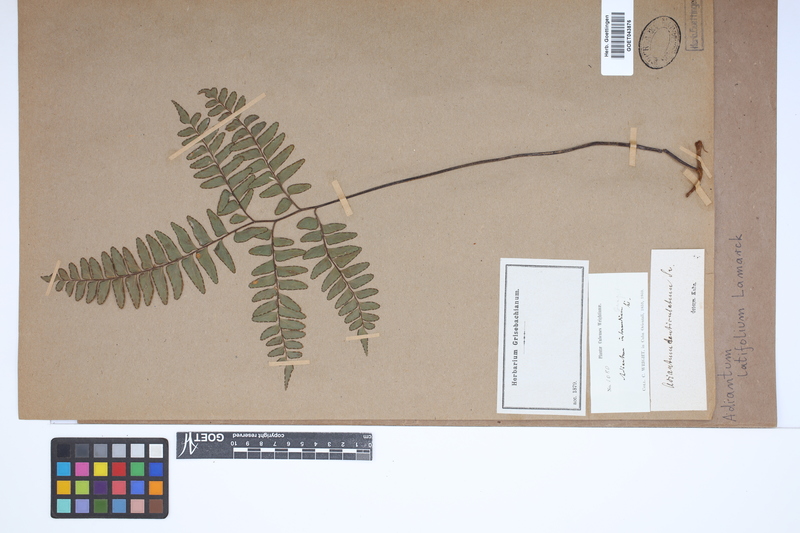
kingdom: Plantae
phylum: Tracheophyta
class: Polypodiopsida
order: Polypodiales
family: Pteridaceae
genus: Adiantum
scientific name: Adiantum latifolium
